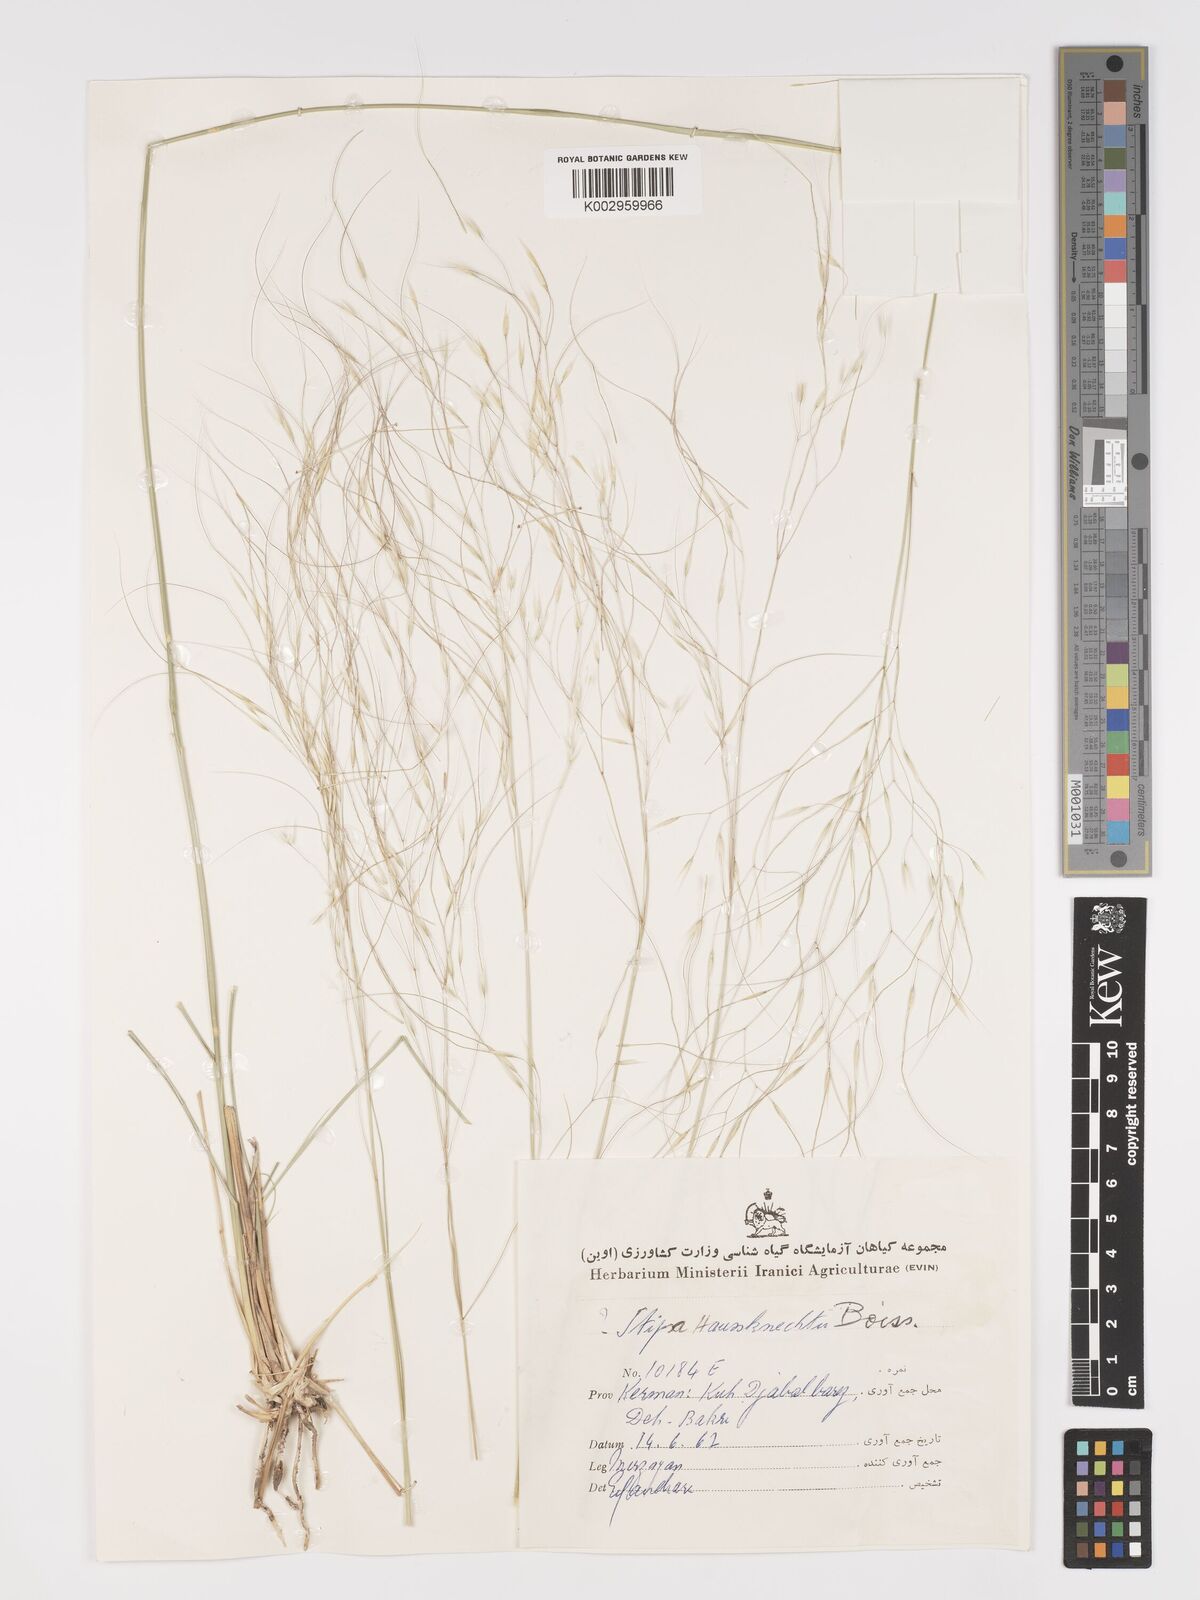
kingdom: Plantae
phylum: Tracheophyta
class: Liliopsida
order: Poales
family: Poaceae
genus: Achnatherum
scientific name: Achnatherum haussknechtii
